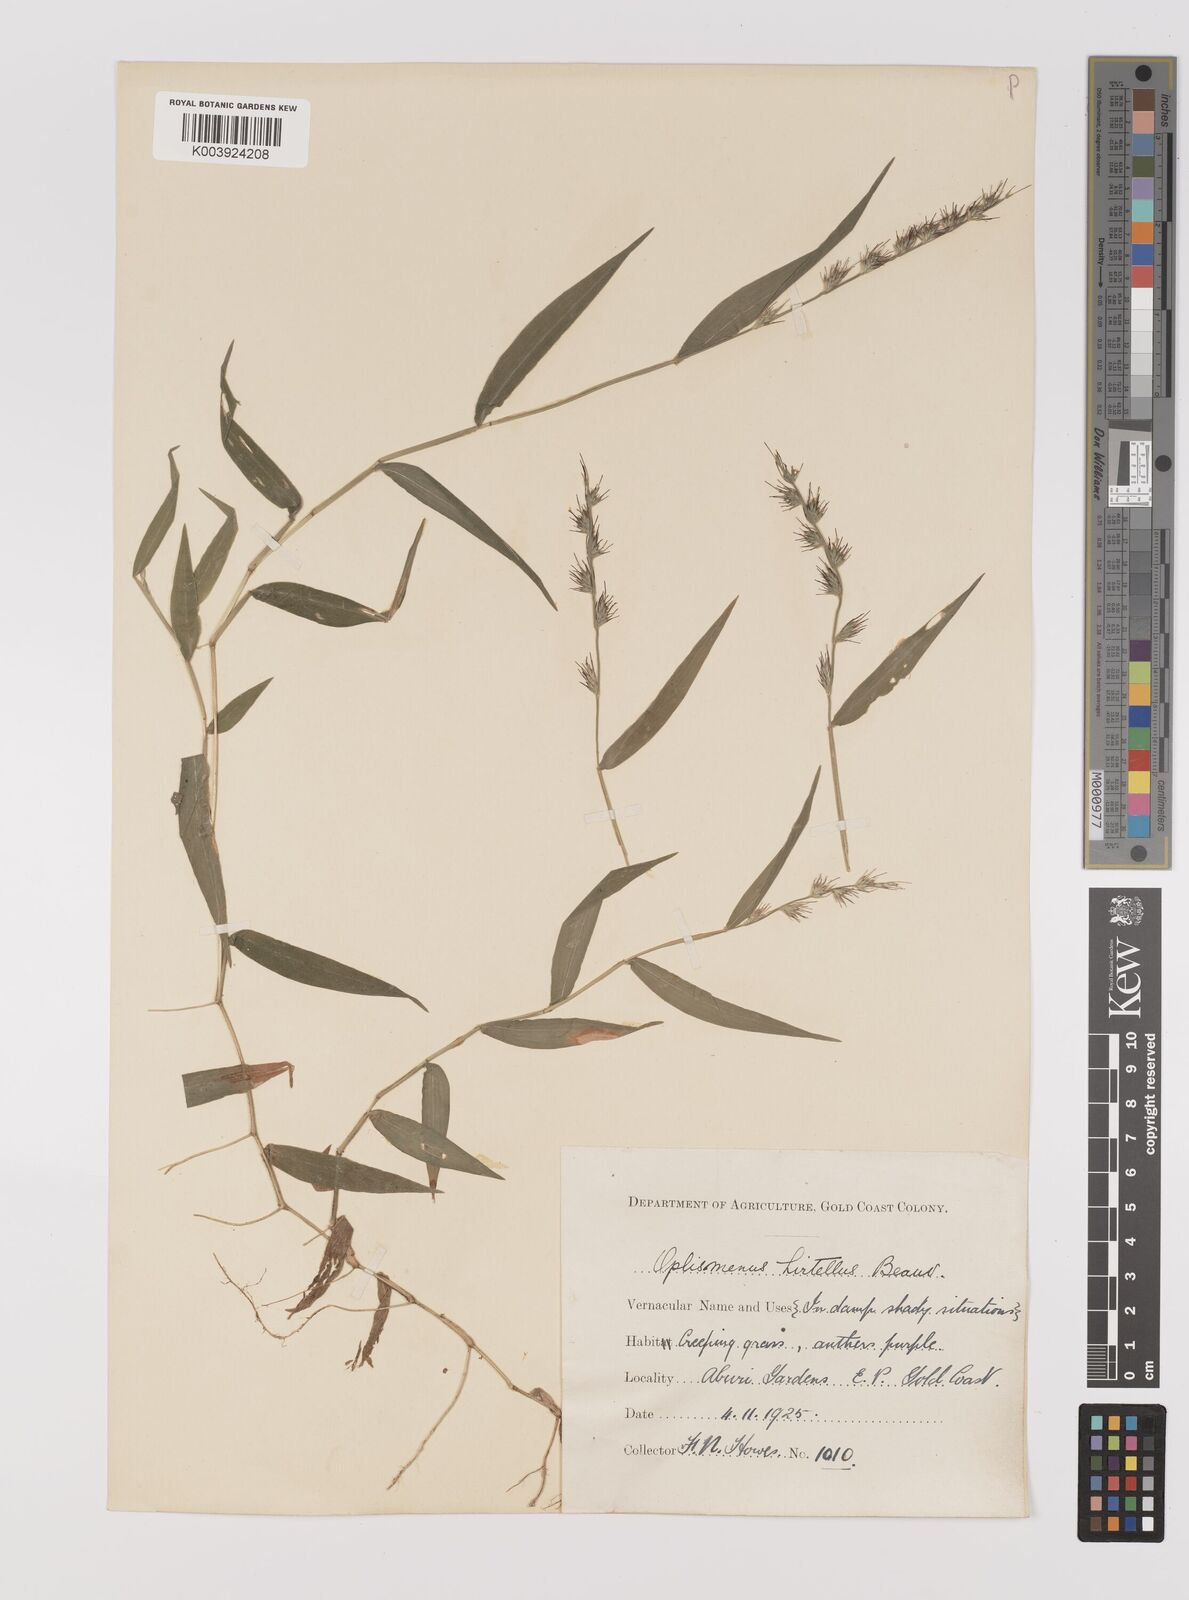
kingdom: Plantae
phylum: Tracheophyta
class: Liliopsida
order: Poales
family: Poaceae
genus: Oplismenus
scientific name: Oplismenus hirtellus
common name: Basketgrass
